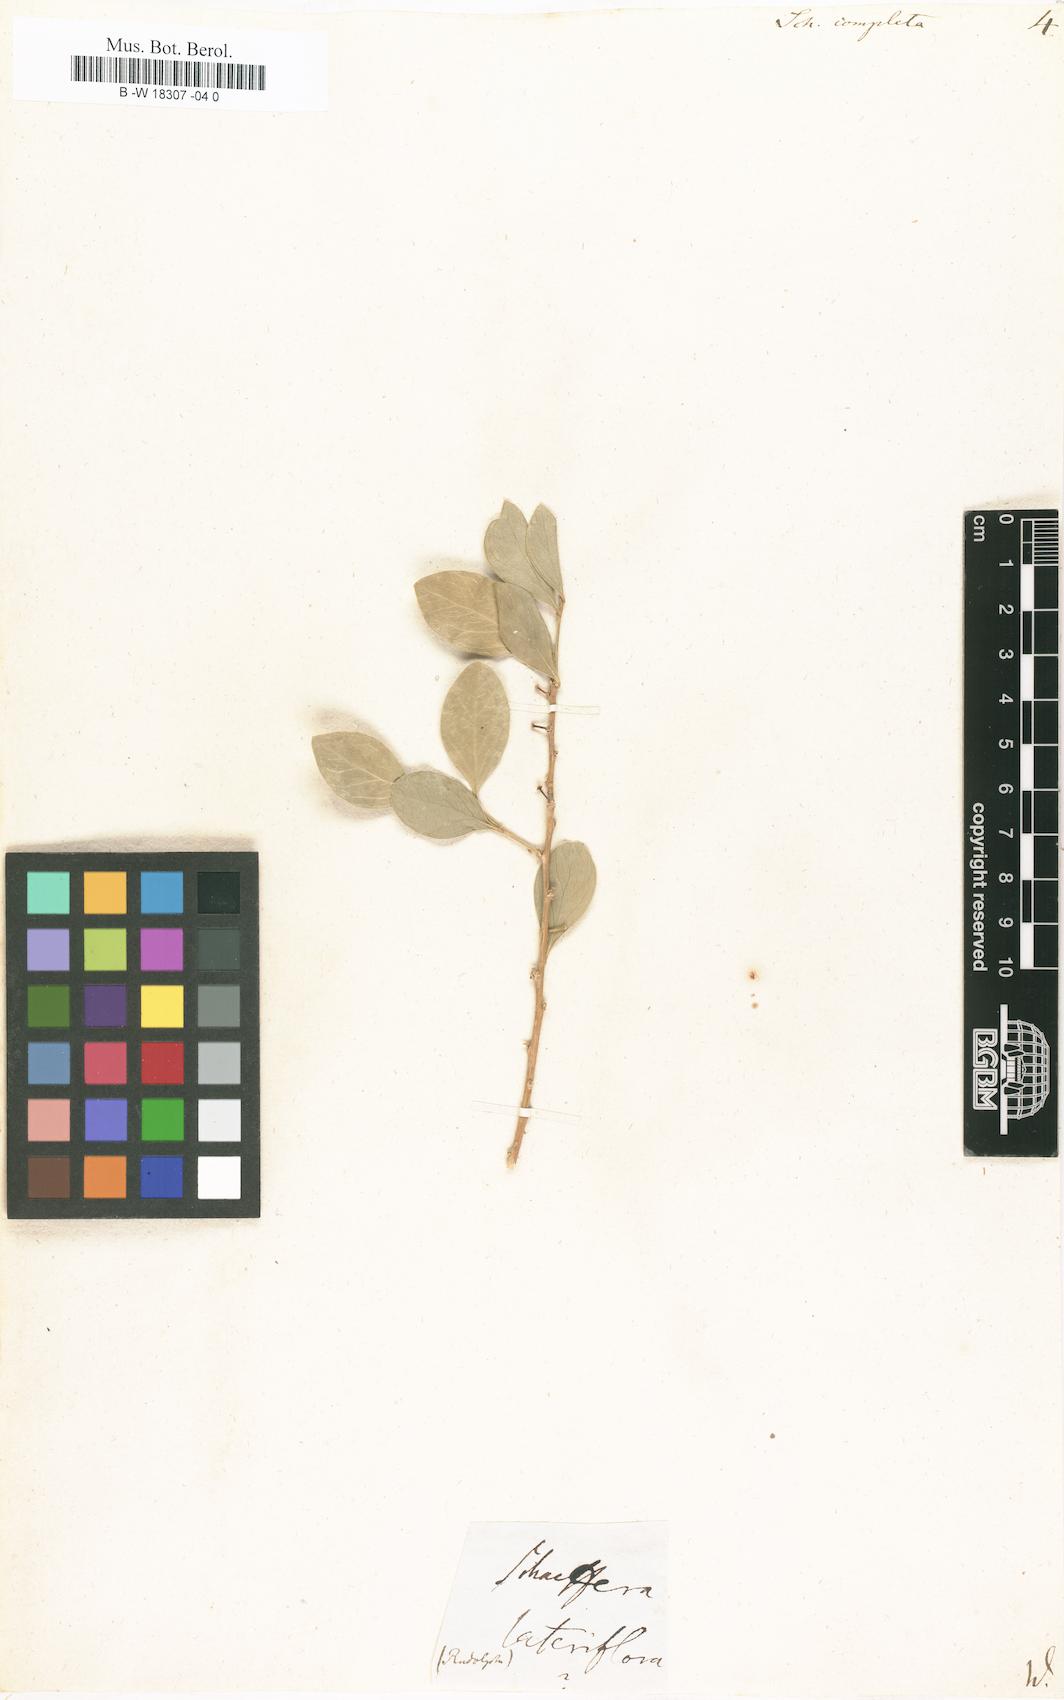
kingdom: Plantae
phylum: Tracheophyta
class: Magnoliopsida
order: Celastrales
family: Celastraceae
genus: Schaefferia
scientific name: Schaefferia frutescens
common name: Boxwood
